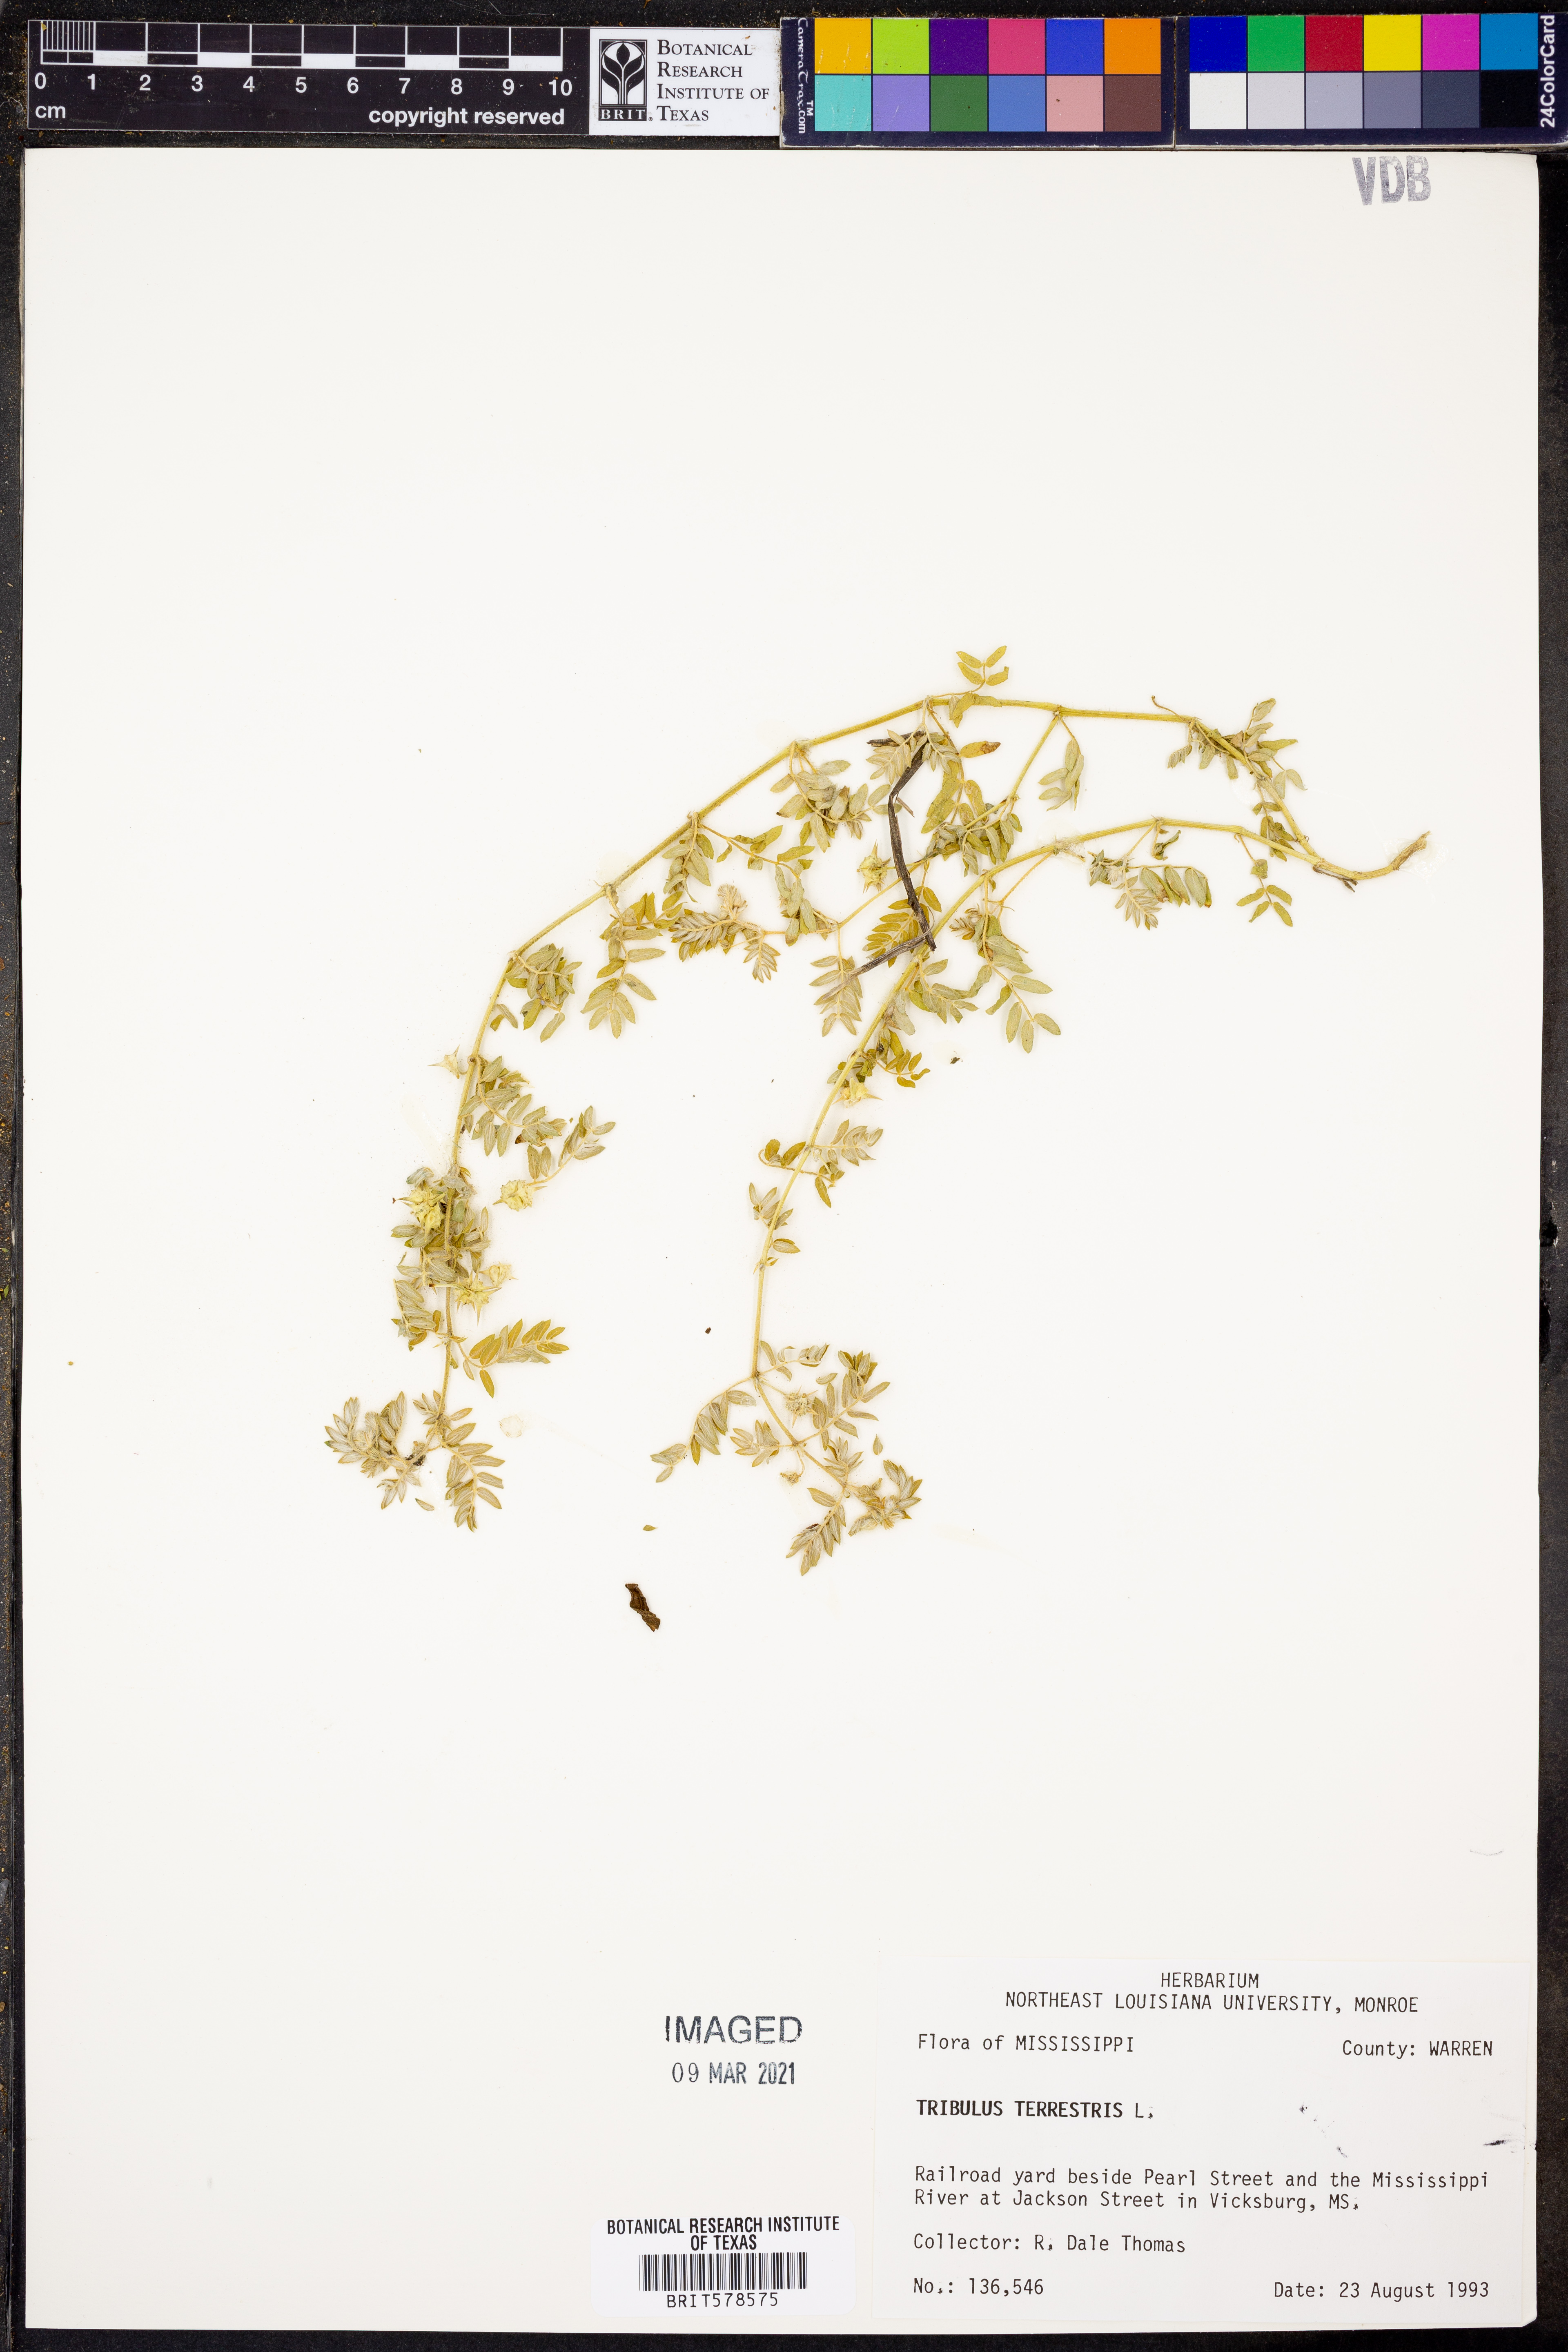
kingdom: Plantae
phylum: Tracheophyta
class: Magnoliopsida
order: Zygophyllales
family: Zygophyllaceae
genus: Tribulus
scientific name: Tribulus terrestris
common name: Puncturevine
